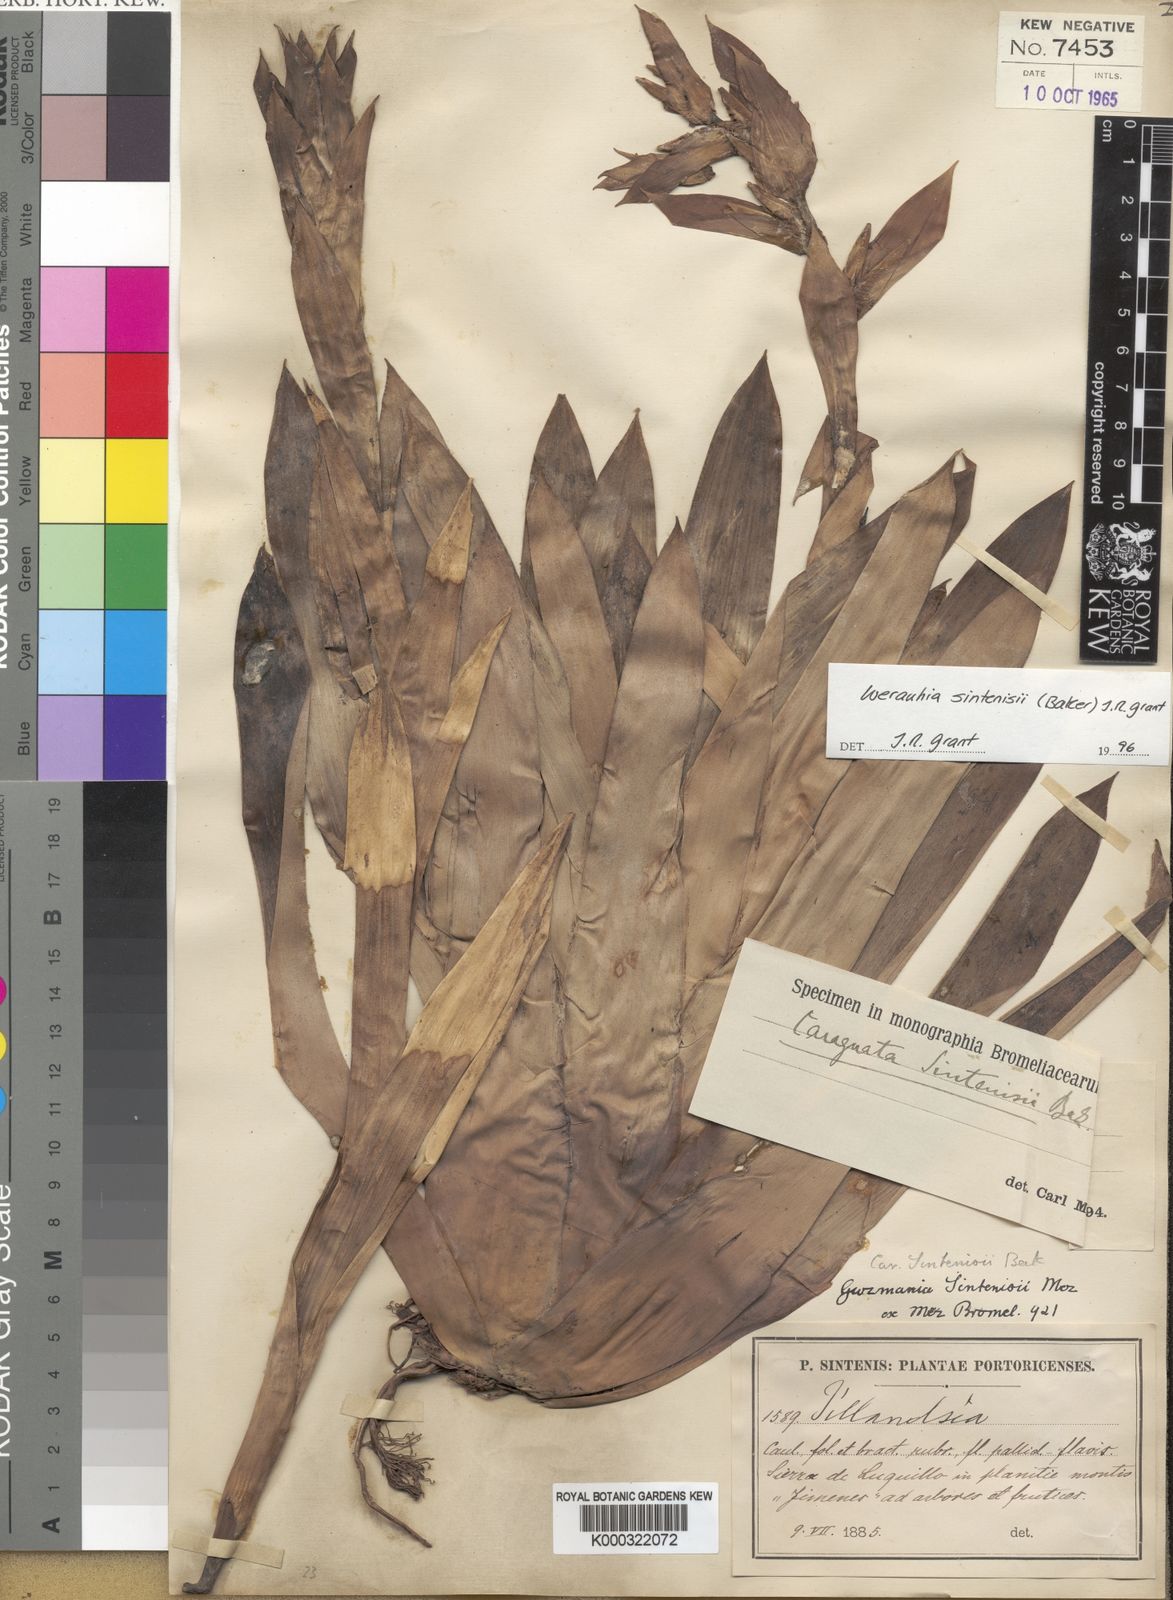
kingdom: Plantae
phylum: Tracheophyta
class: Liliopsida
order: Poales
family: Bromeliaceae
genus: Werauhia
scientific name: Werauhia sintenisii
